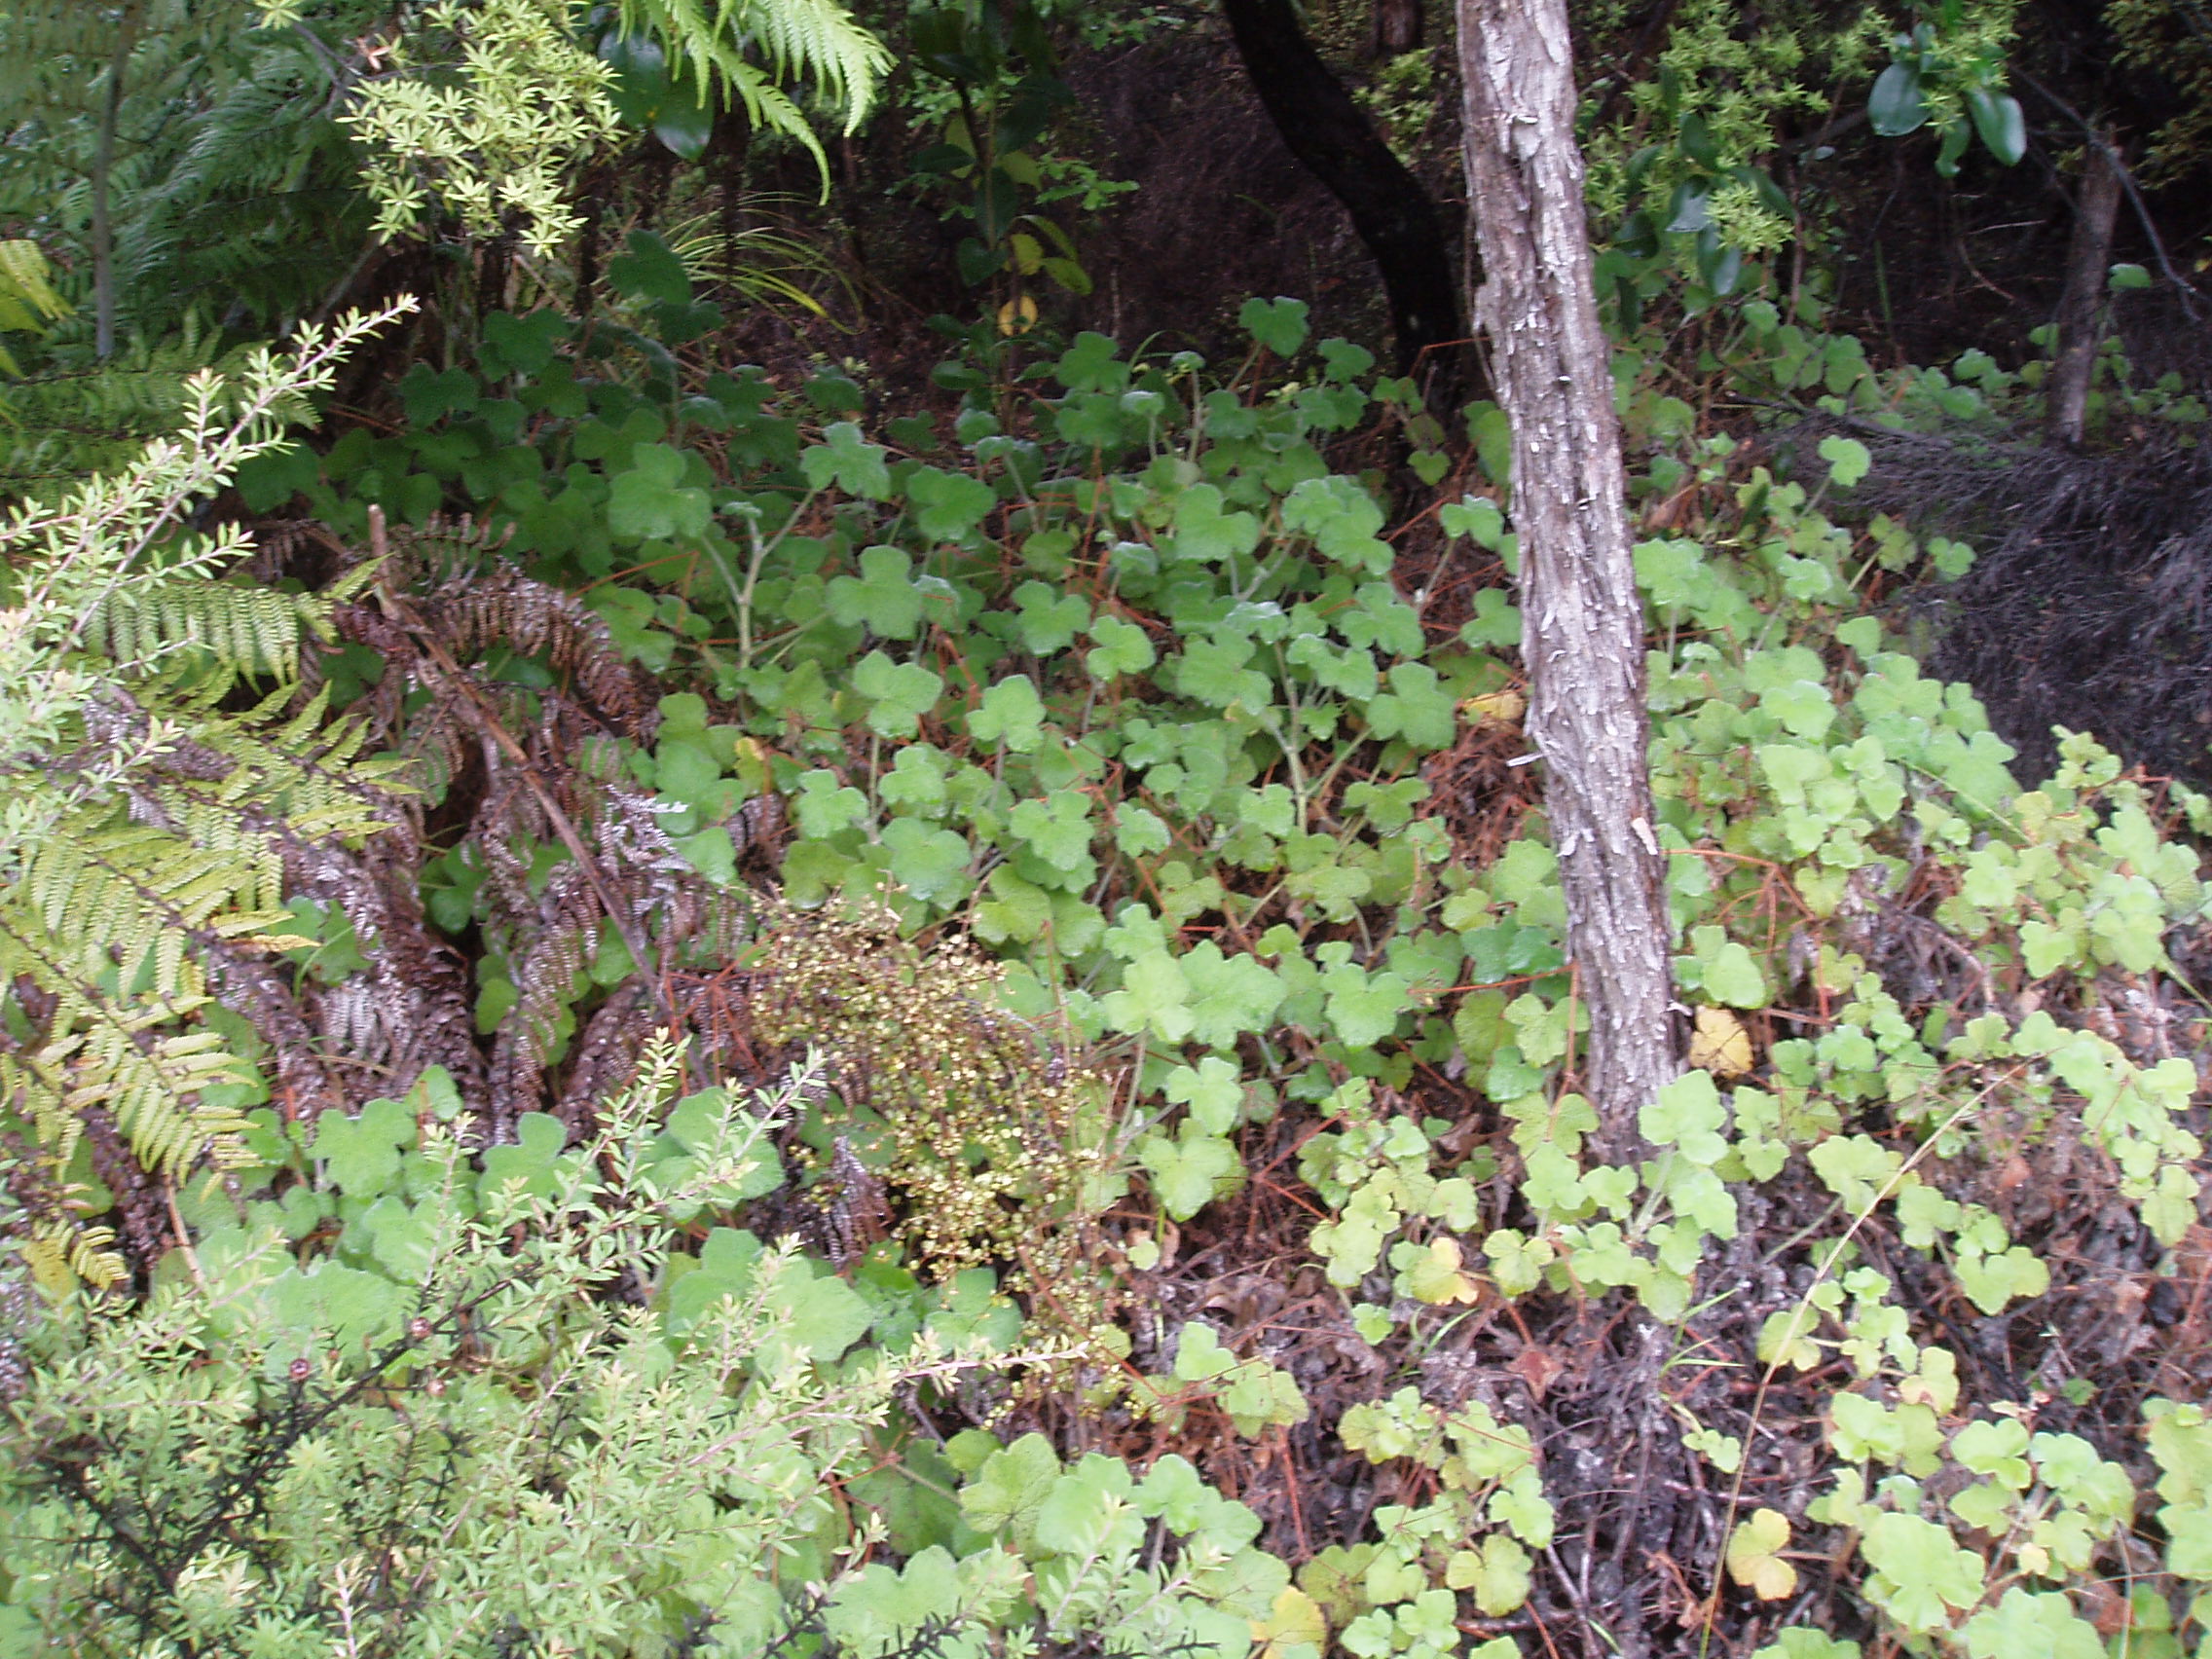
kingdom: Plantae
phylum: Tracheophyta
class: Magnoliopsida
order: Geraniales
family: Geraniaceae
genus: Pelargonium
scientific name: Pelargonium tomentosum
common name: Peppermint-scented geranium
